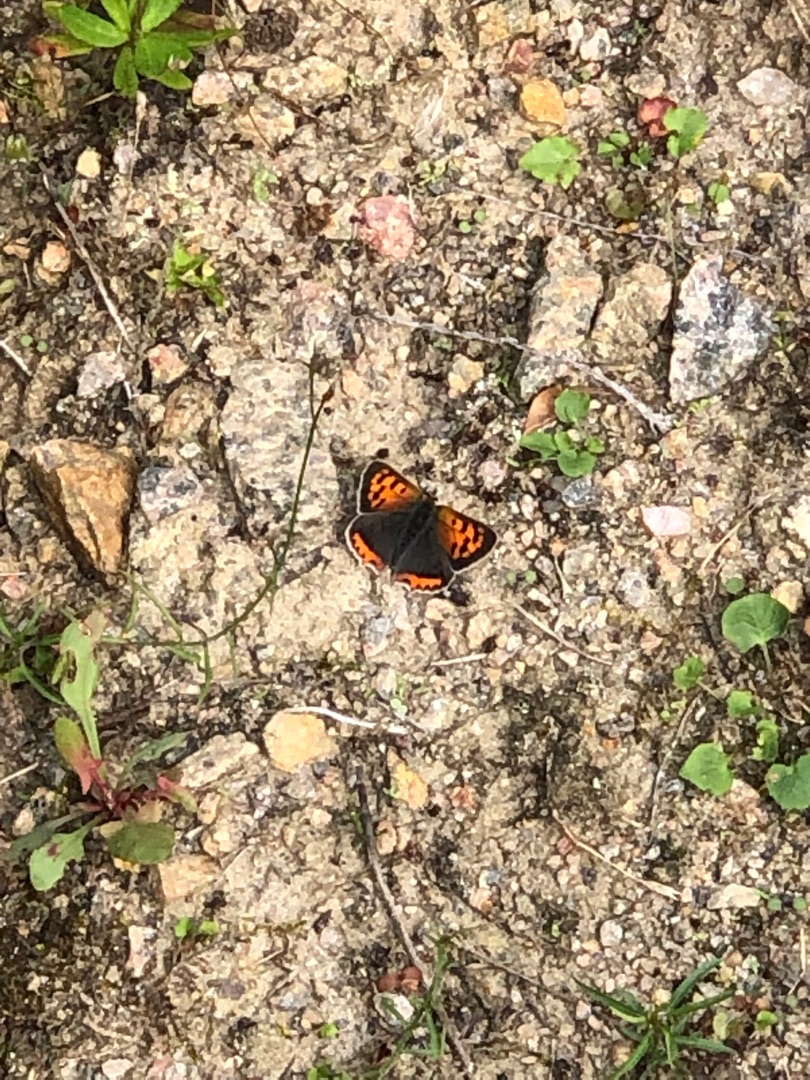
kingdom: Animalia
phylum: Arthropoda
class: Insecta
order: Lepidoptera
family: Lycaenidae
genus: Lycaena
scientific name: Lycaena phlaeas
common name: Lille ildfugl
